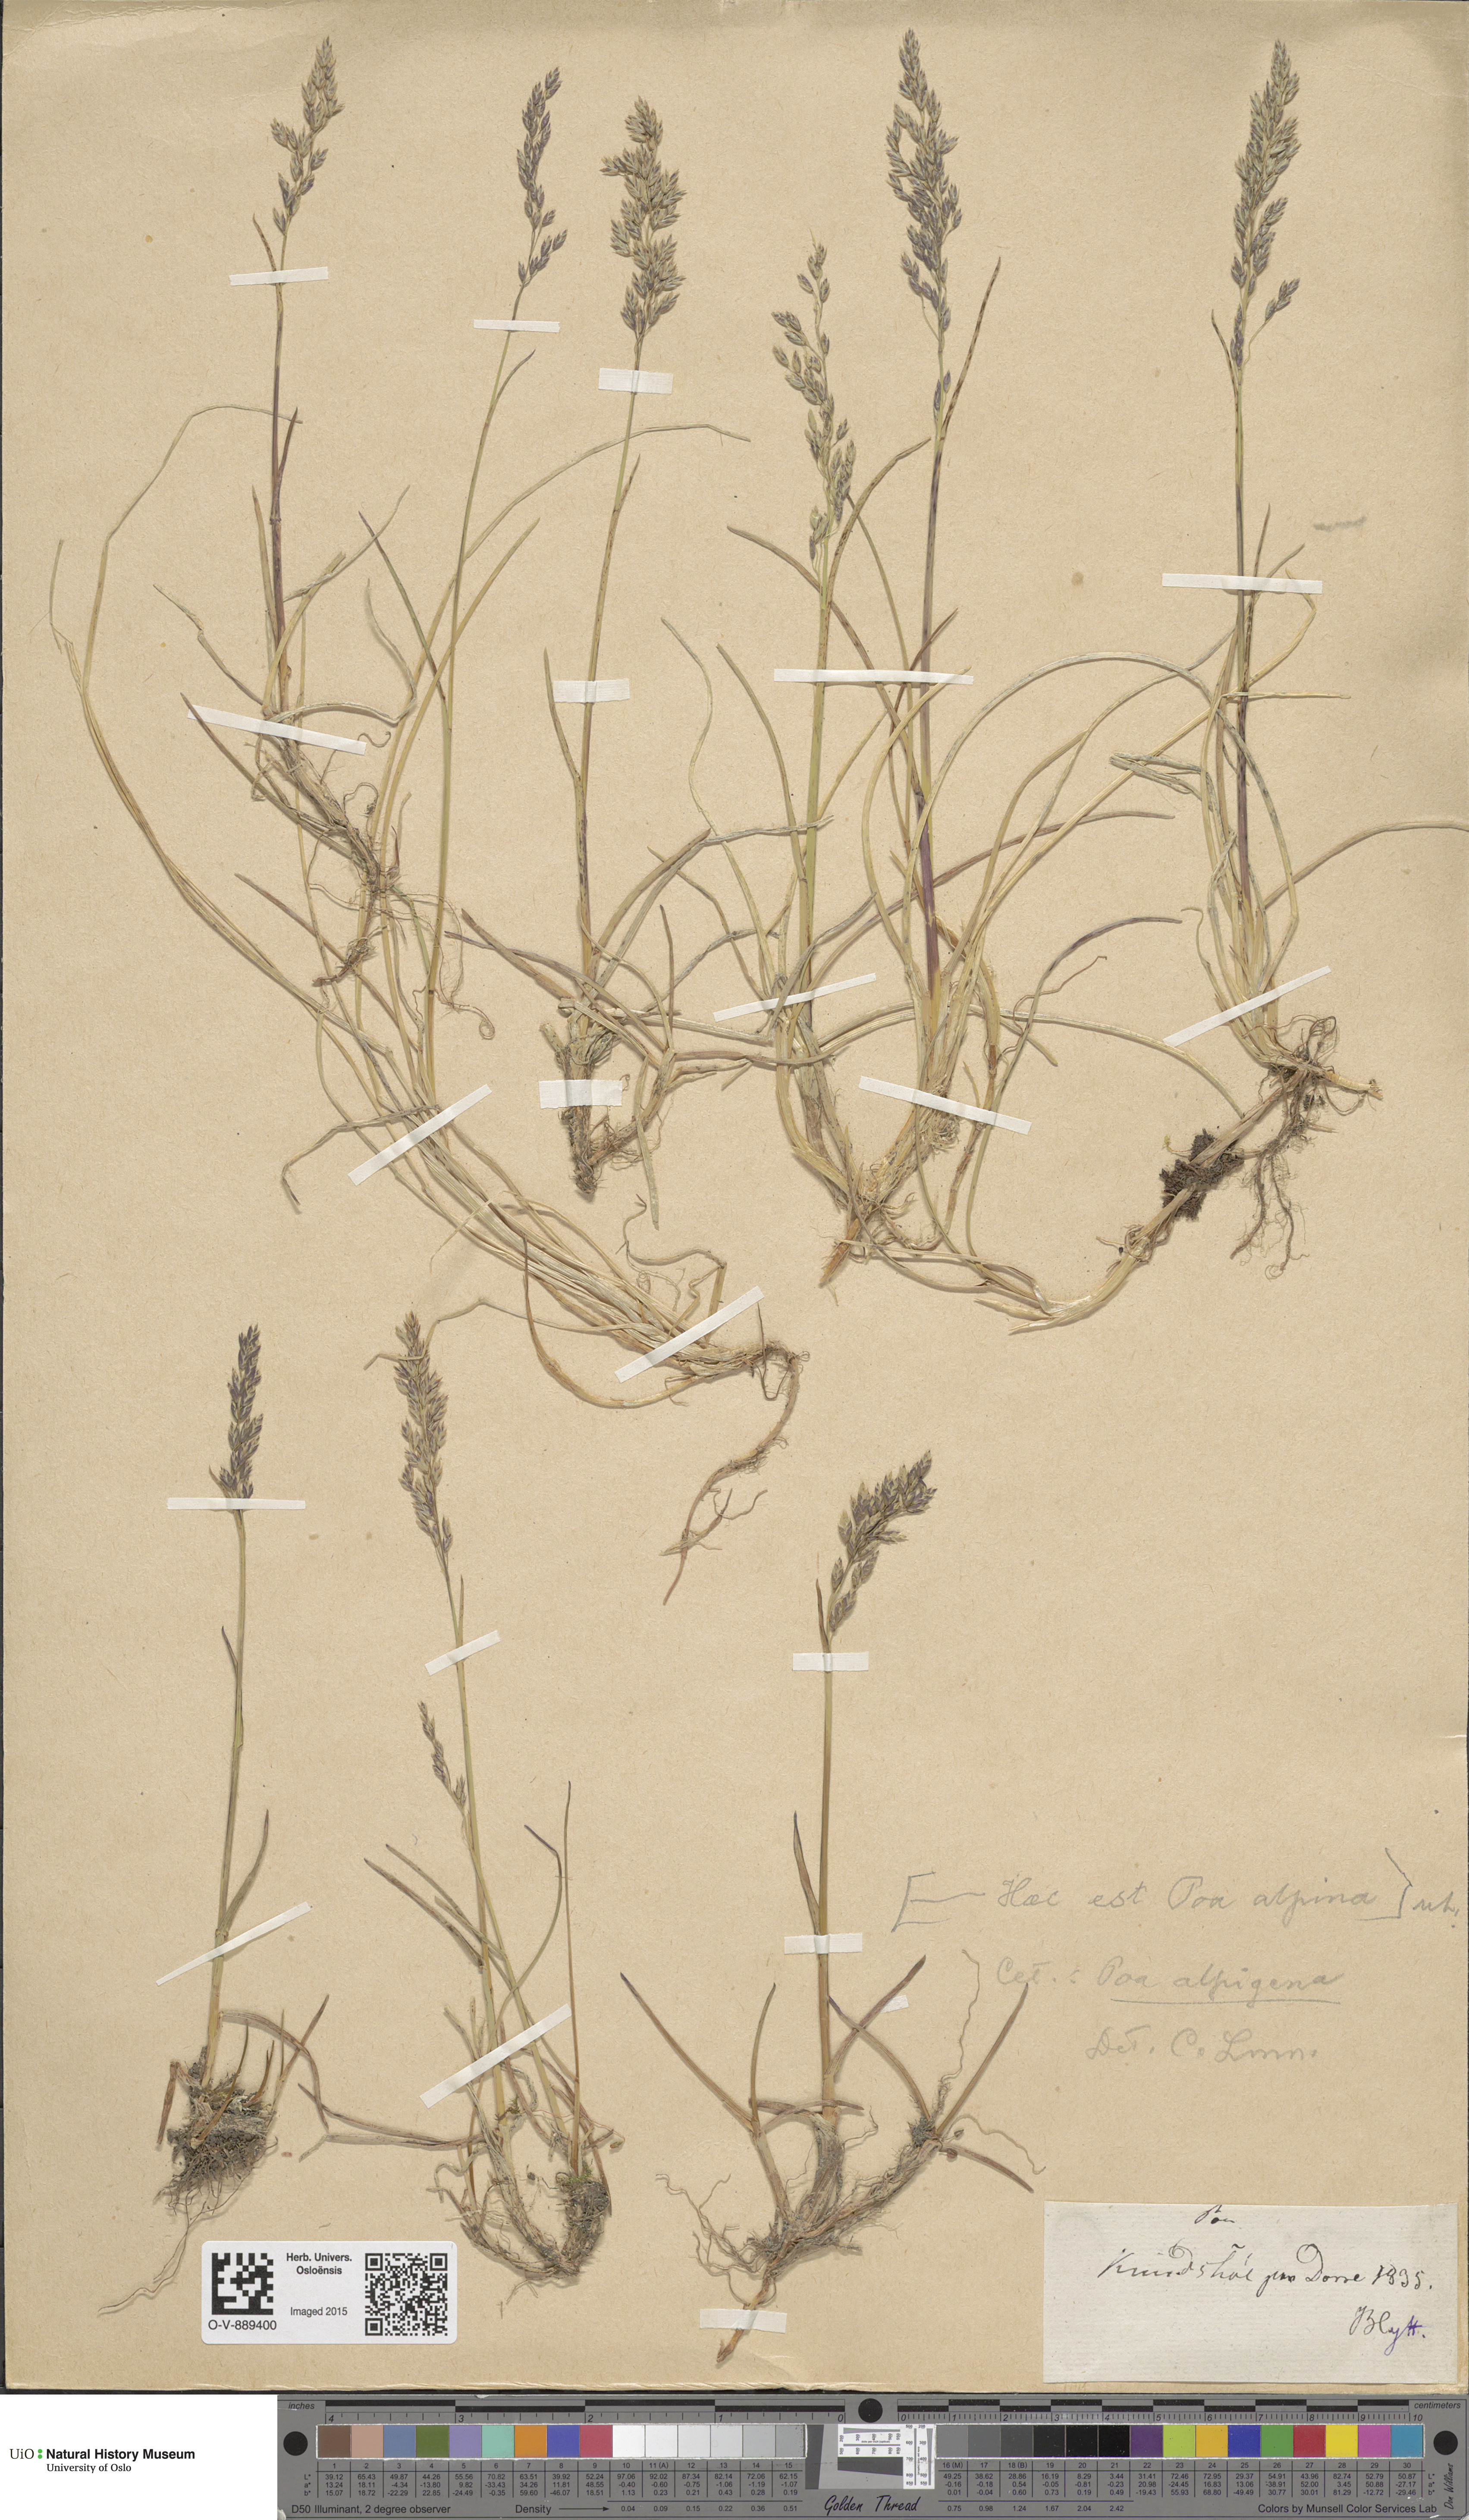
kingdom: Plantae
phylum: Tracheophyta
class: Liliopsida
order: Poales
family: Poaceae
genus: Poa
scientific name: Poa alpigena
